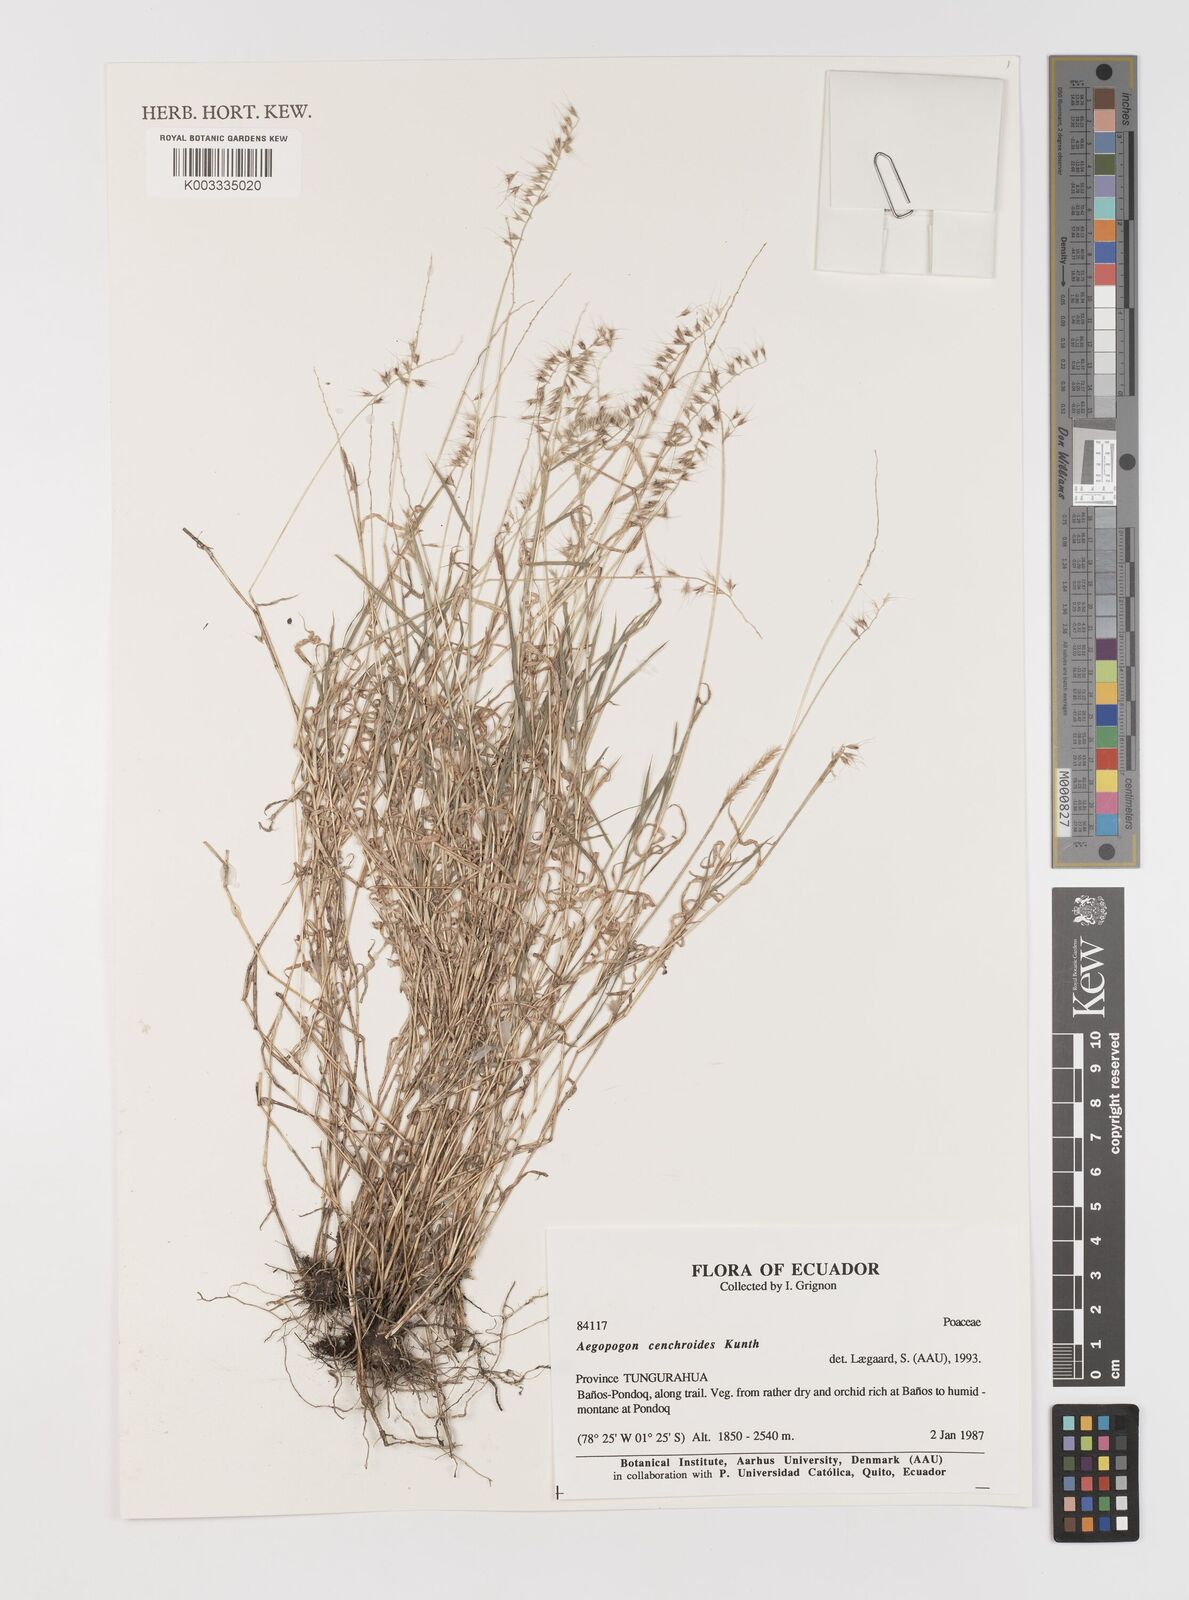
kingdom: Plantae
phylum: Tracheophyta
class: Liliopsida
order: Poales
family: Poaceae
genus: Muhlenbergia
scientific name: Muhlenbergia cenchroides
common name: Relaxgrass
